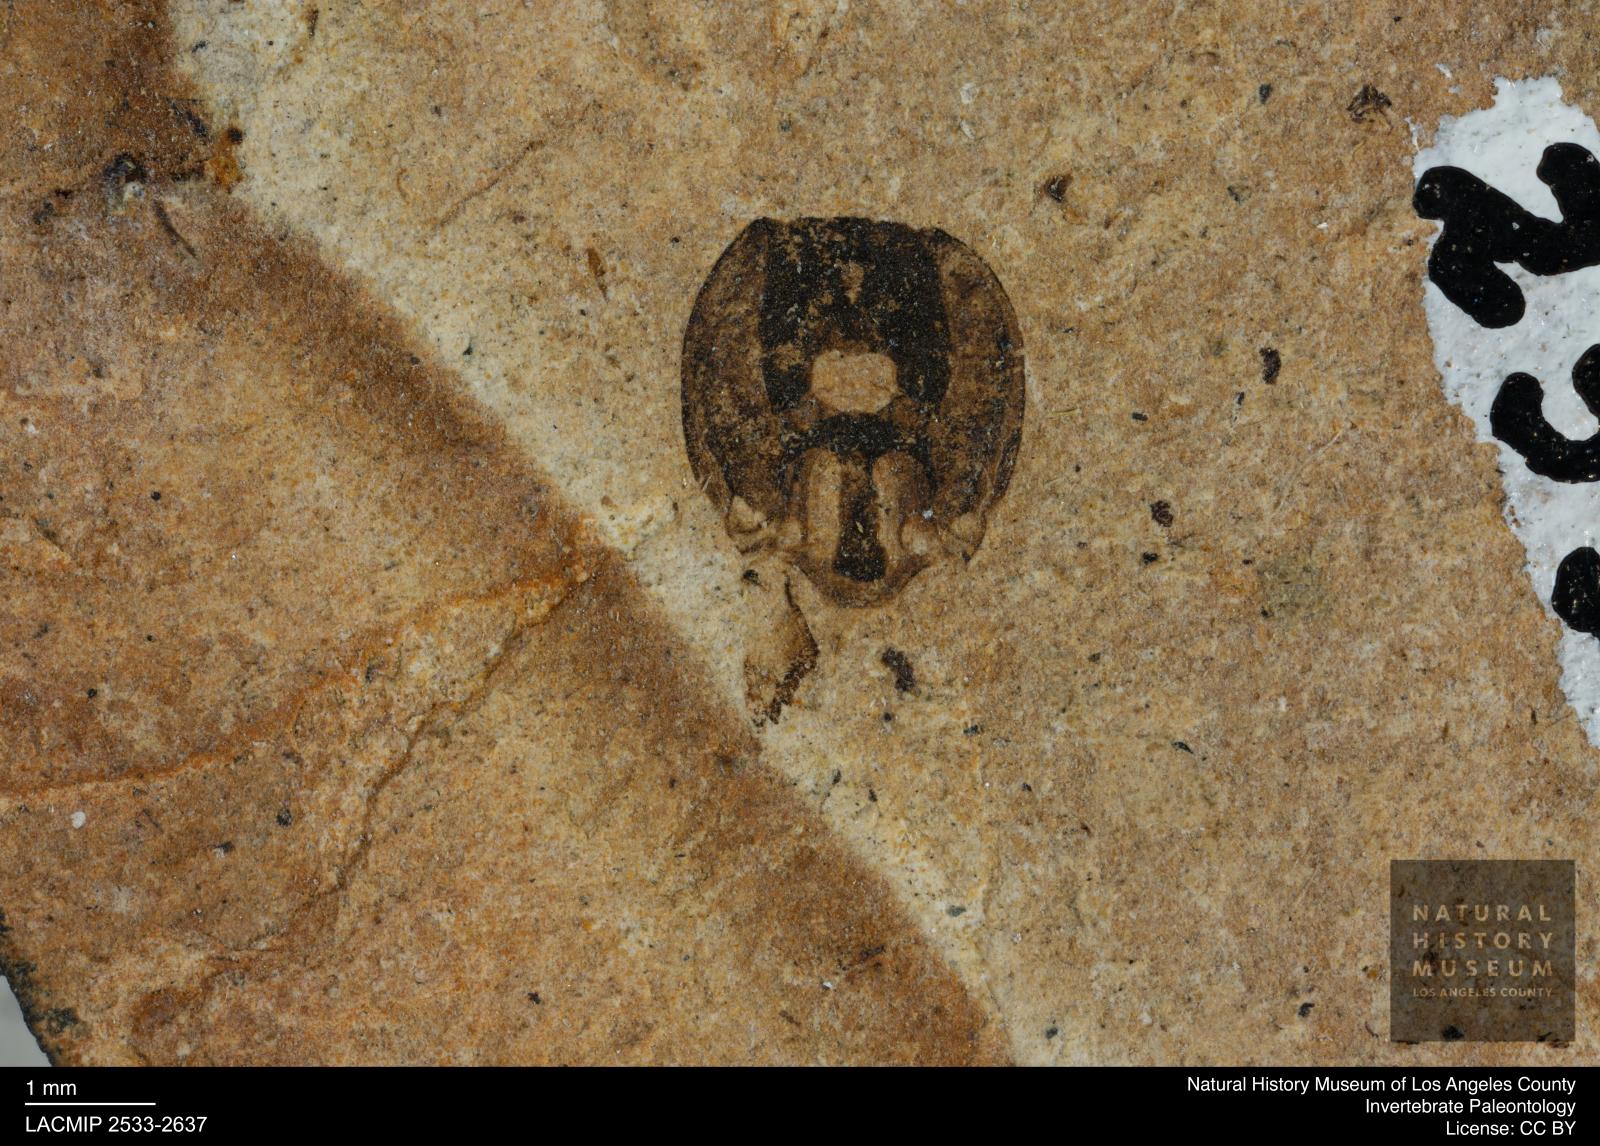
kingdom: Animalia
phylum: Arthropoda
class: Insecta
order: Hymenoptera
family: Vespidae
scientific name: Vespidae
